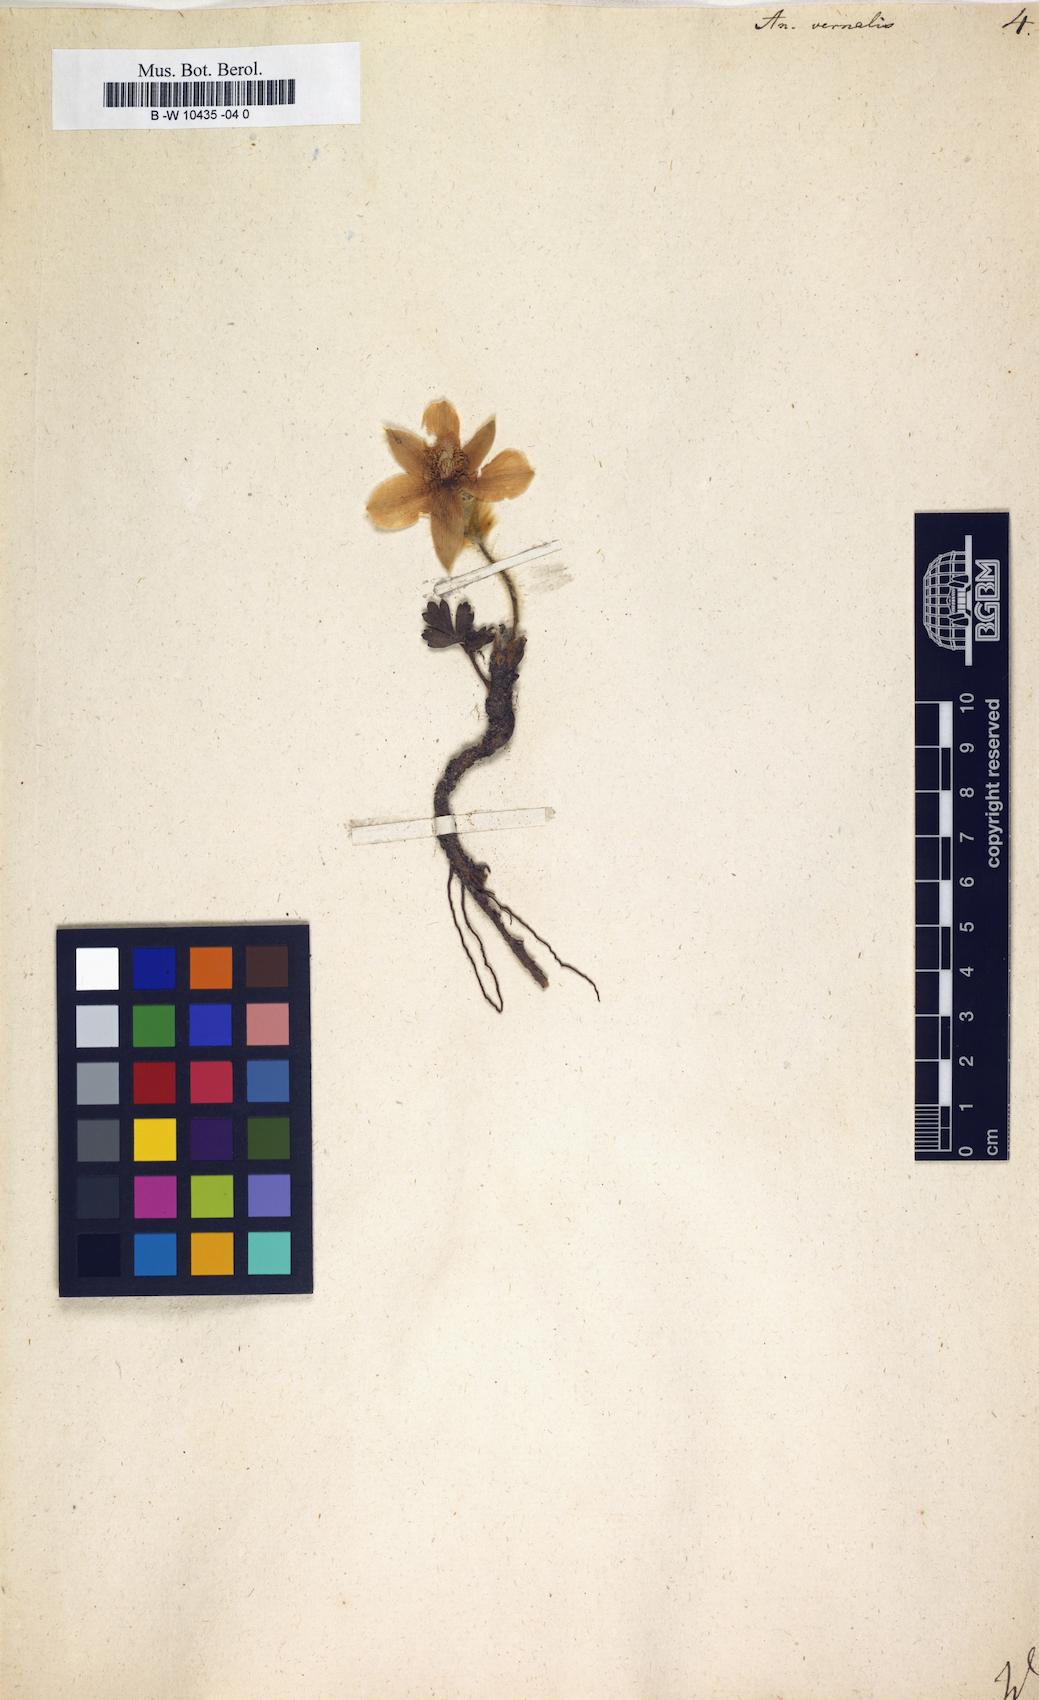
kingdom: Plantae
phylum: Tracheophyta
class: Magnoliopsida
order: Ranunculales
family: Ranunculaceae
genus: Pulsatilla
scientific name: Pulsatilla vernalis
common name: Spring pasque flower
